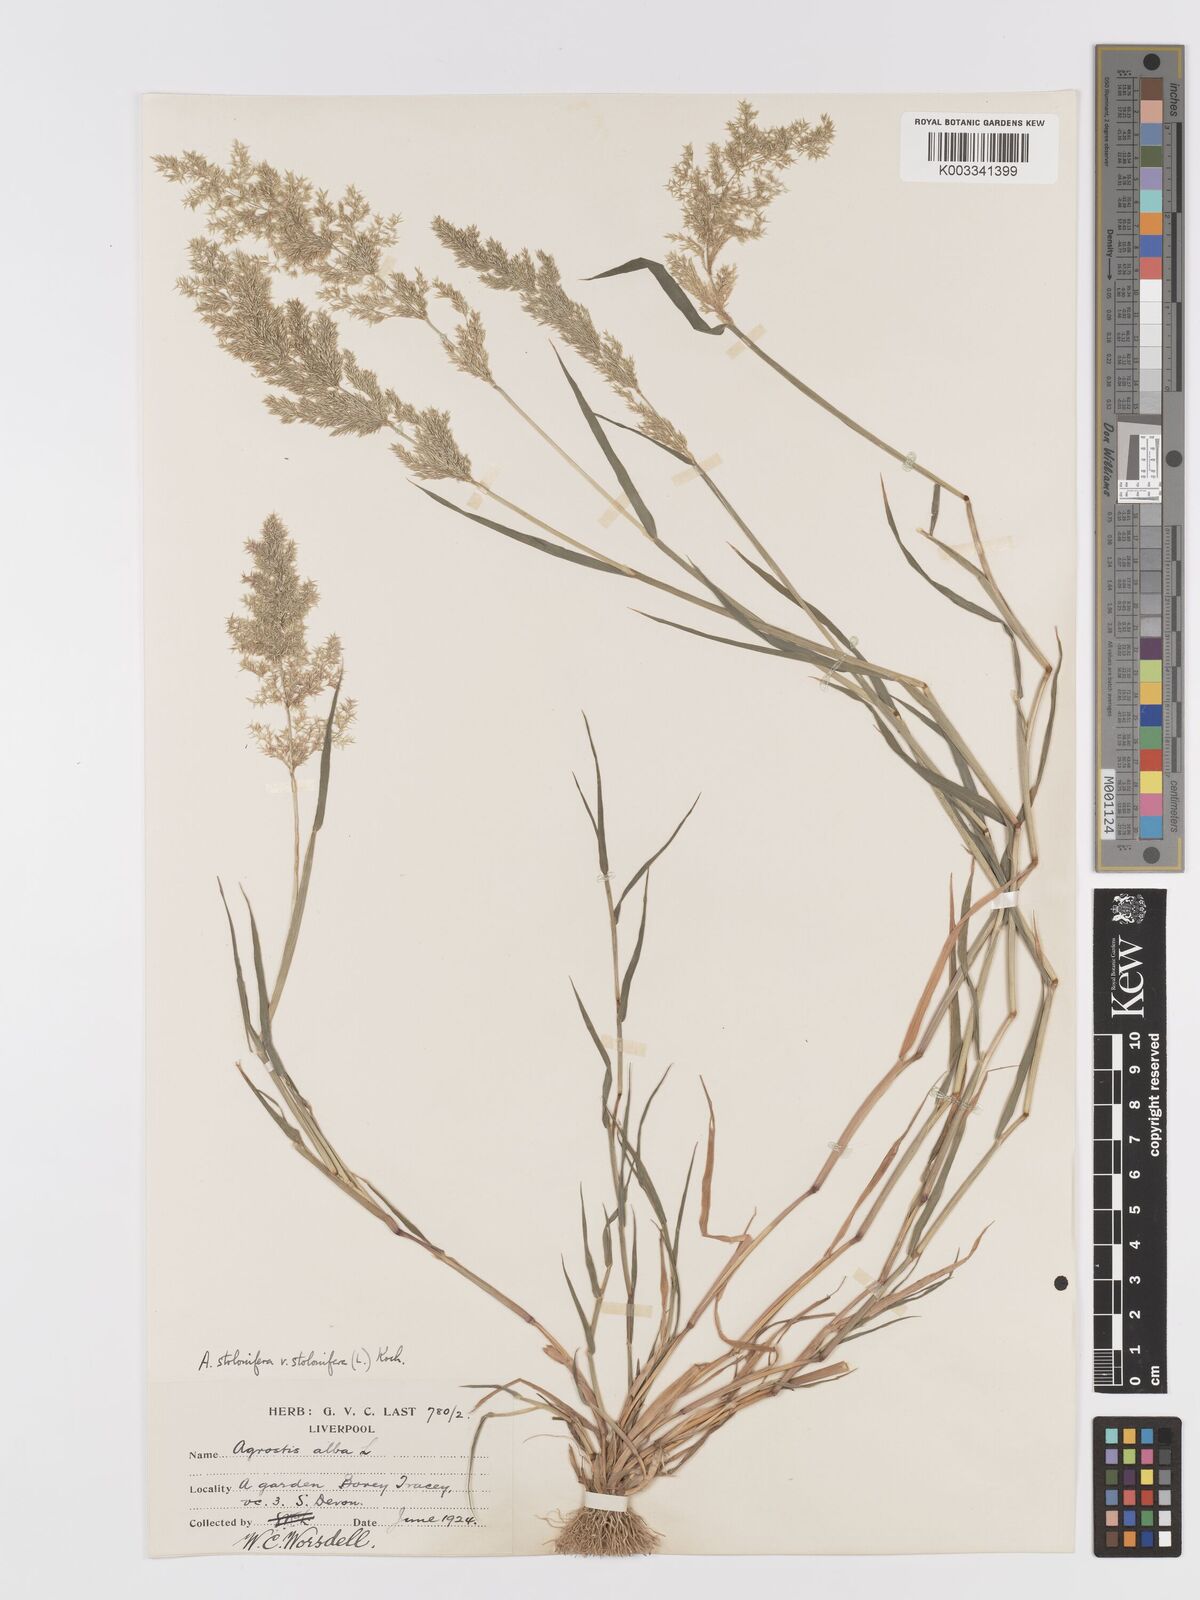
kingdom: Plantae
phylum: Tracheophyta
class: Liliopsida
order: Poales
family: Poaceae
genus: Agrostis
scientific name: Agrostis stolonifera
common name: Creeping bentgrass
